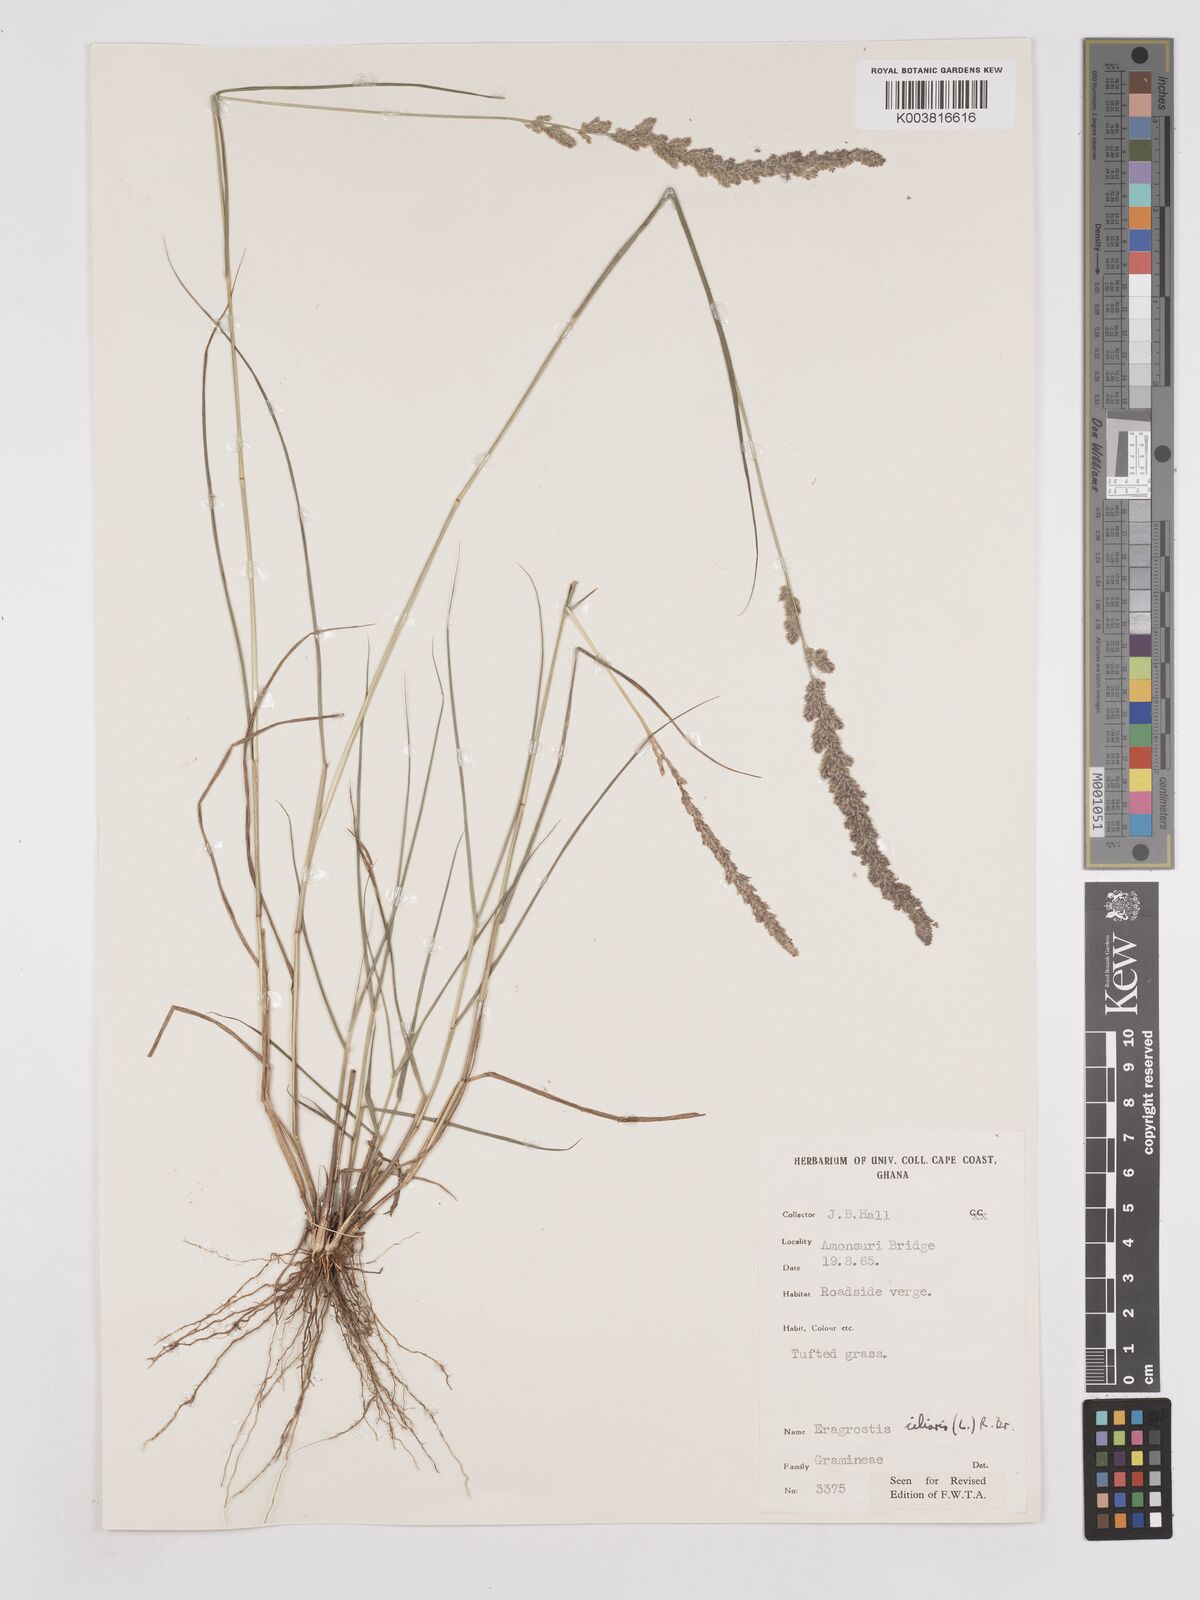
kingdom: Plantae
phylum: Tracheophyta
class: Liliopsida
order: Poales
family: Poaceae
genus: Eragrostis
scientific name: Eragrostis ciliaris
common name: Gophertail lovegrass
